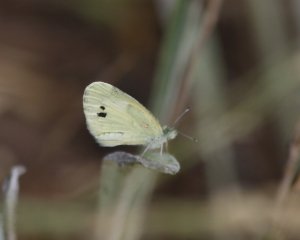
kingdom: Animalia
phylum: Arthropoda
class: Insecta
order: Lepidoptera
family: Pieridae
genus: Nathalis
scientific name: Nathalis iole
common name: Dainty Sulphur
